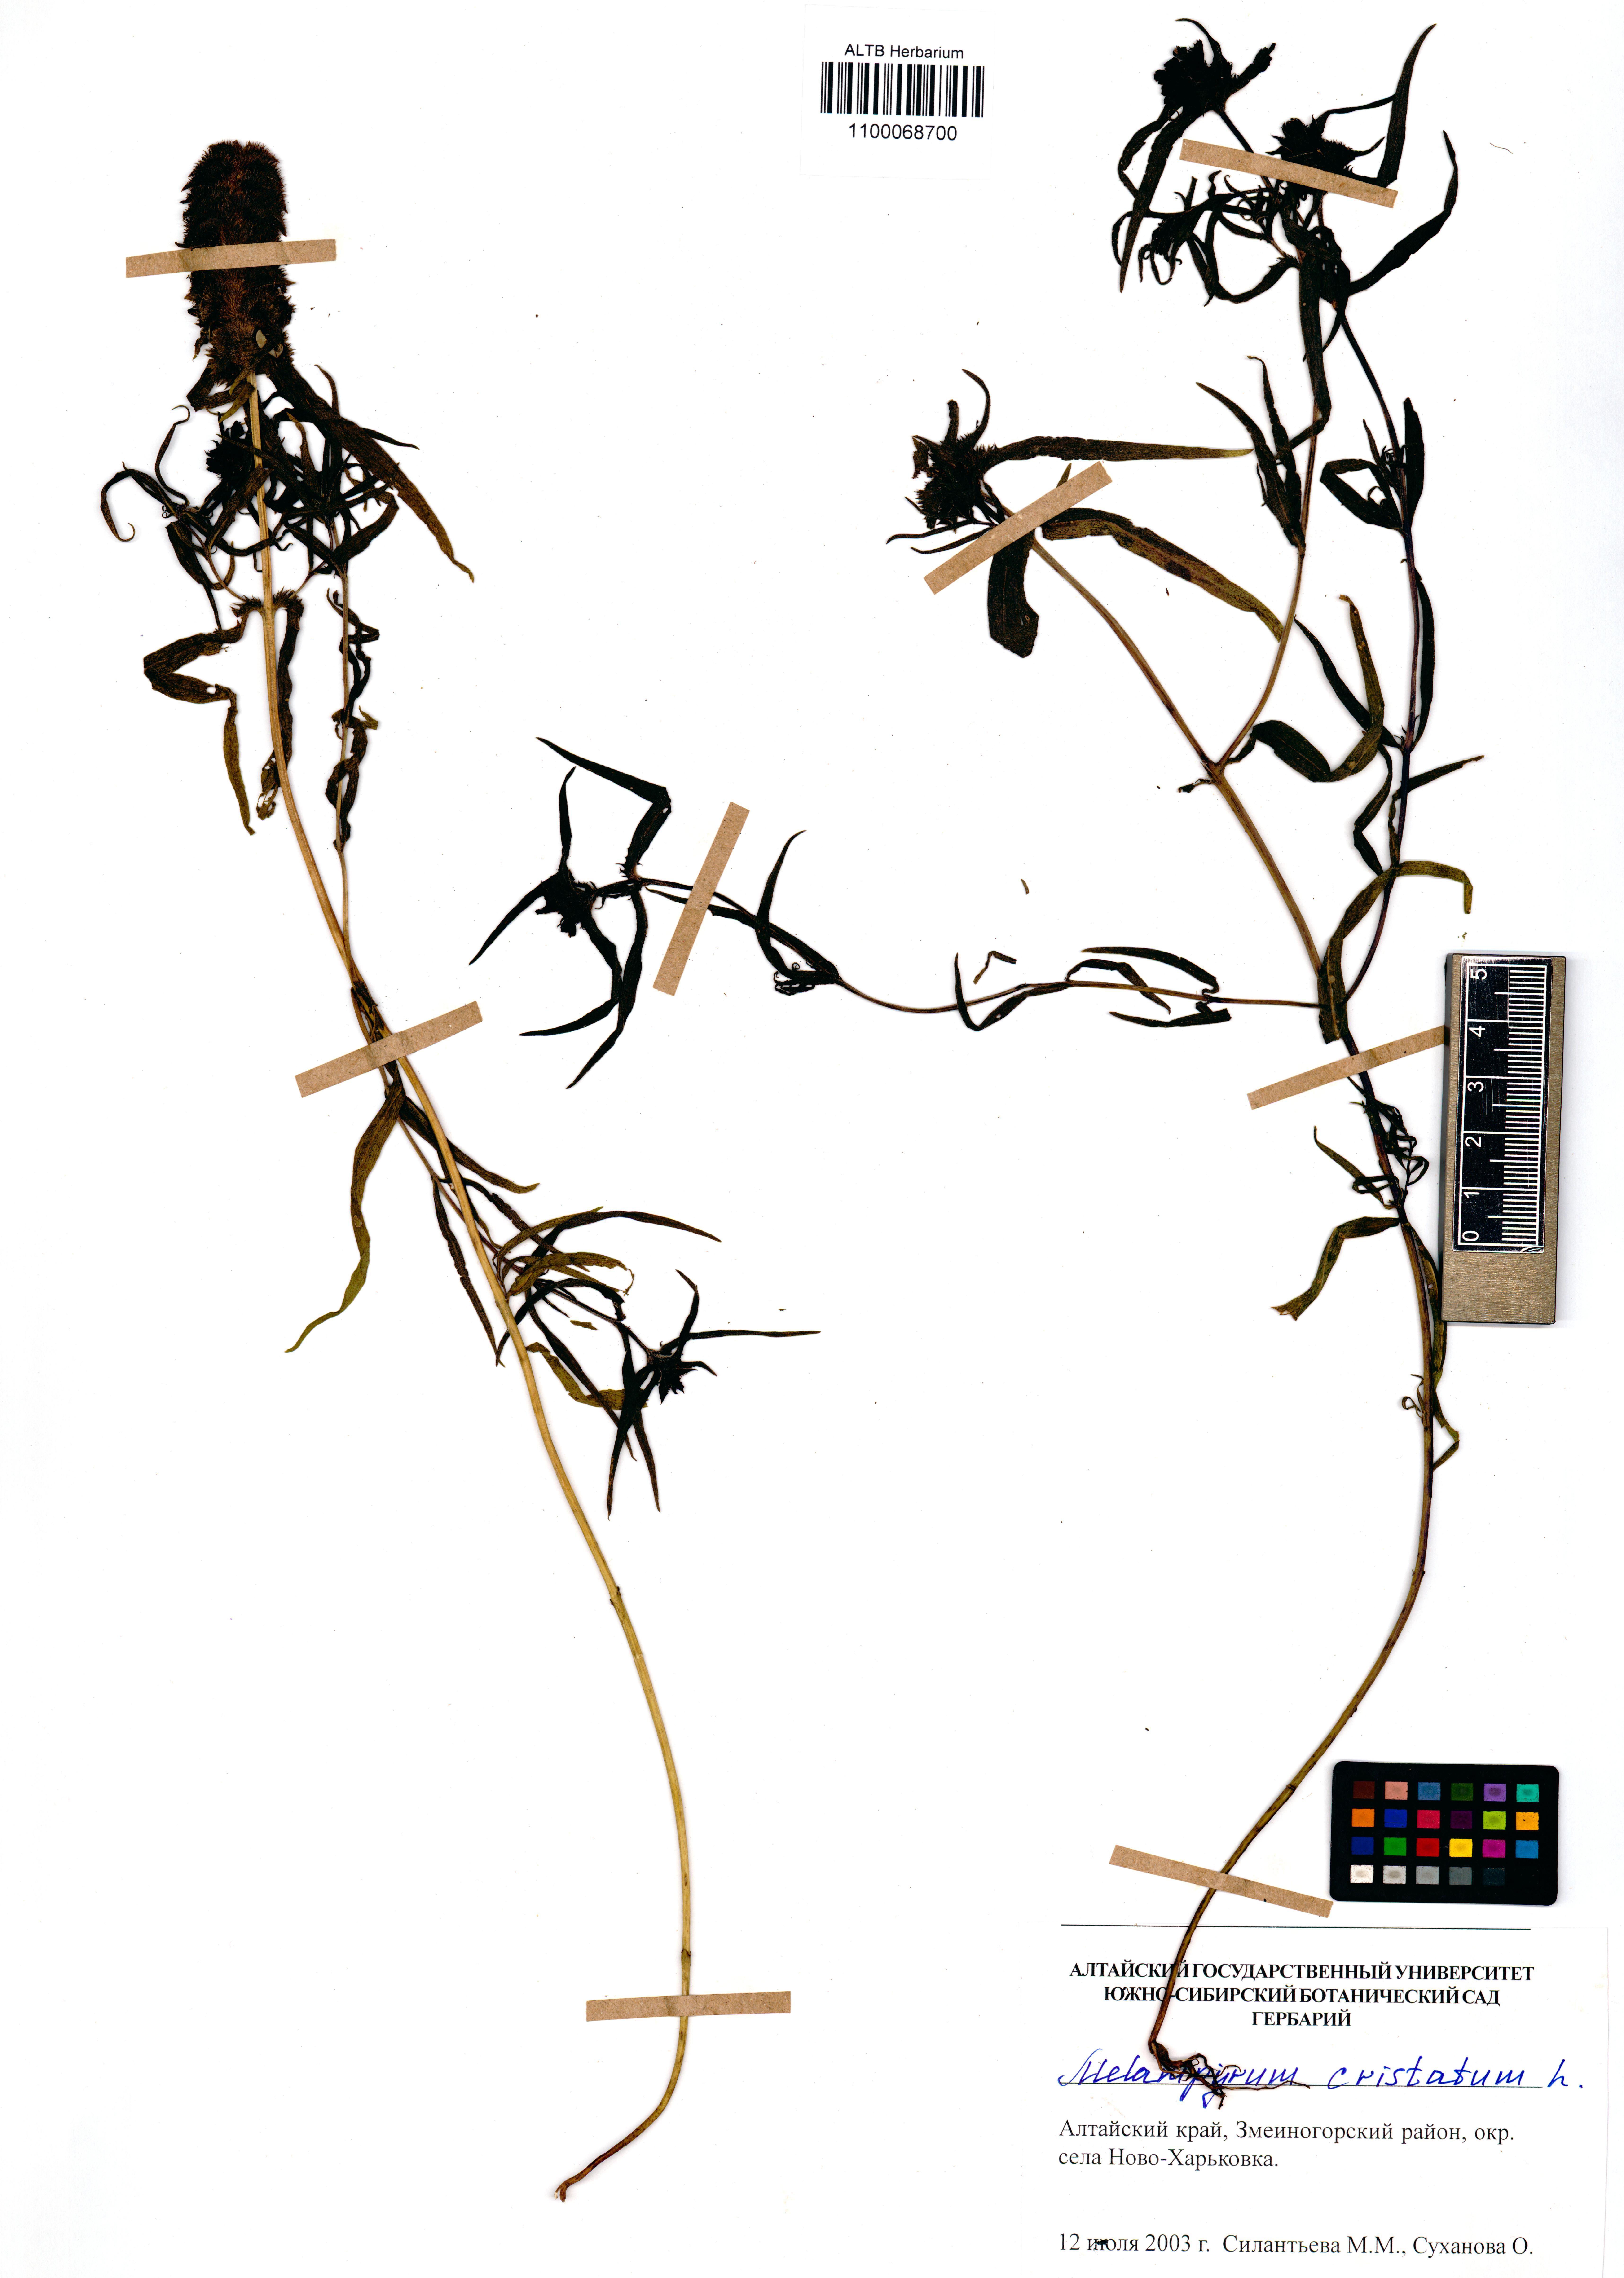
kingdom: Plantae
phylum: Tracheophyta
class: Magnoliopsida
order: Lamiales
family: Orobanchaceae
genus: Melampyrum
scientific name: Melampyrum cristatum
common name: Crested cow-wheat
